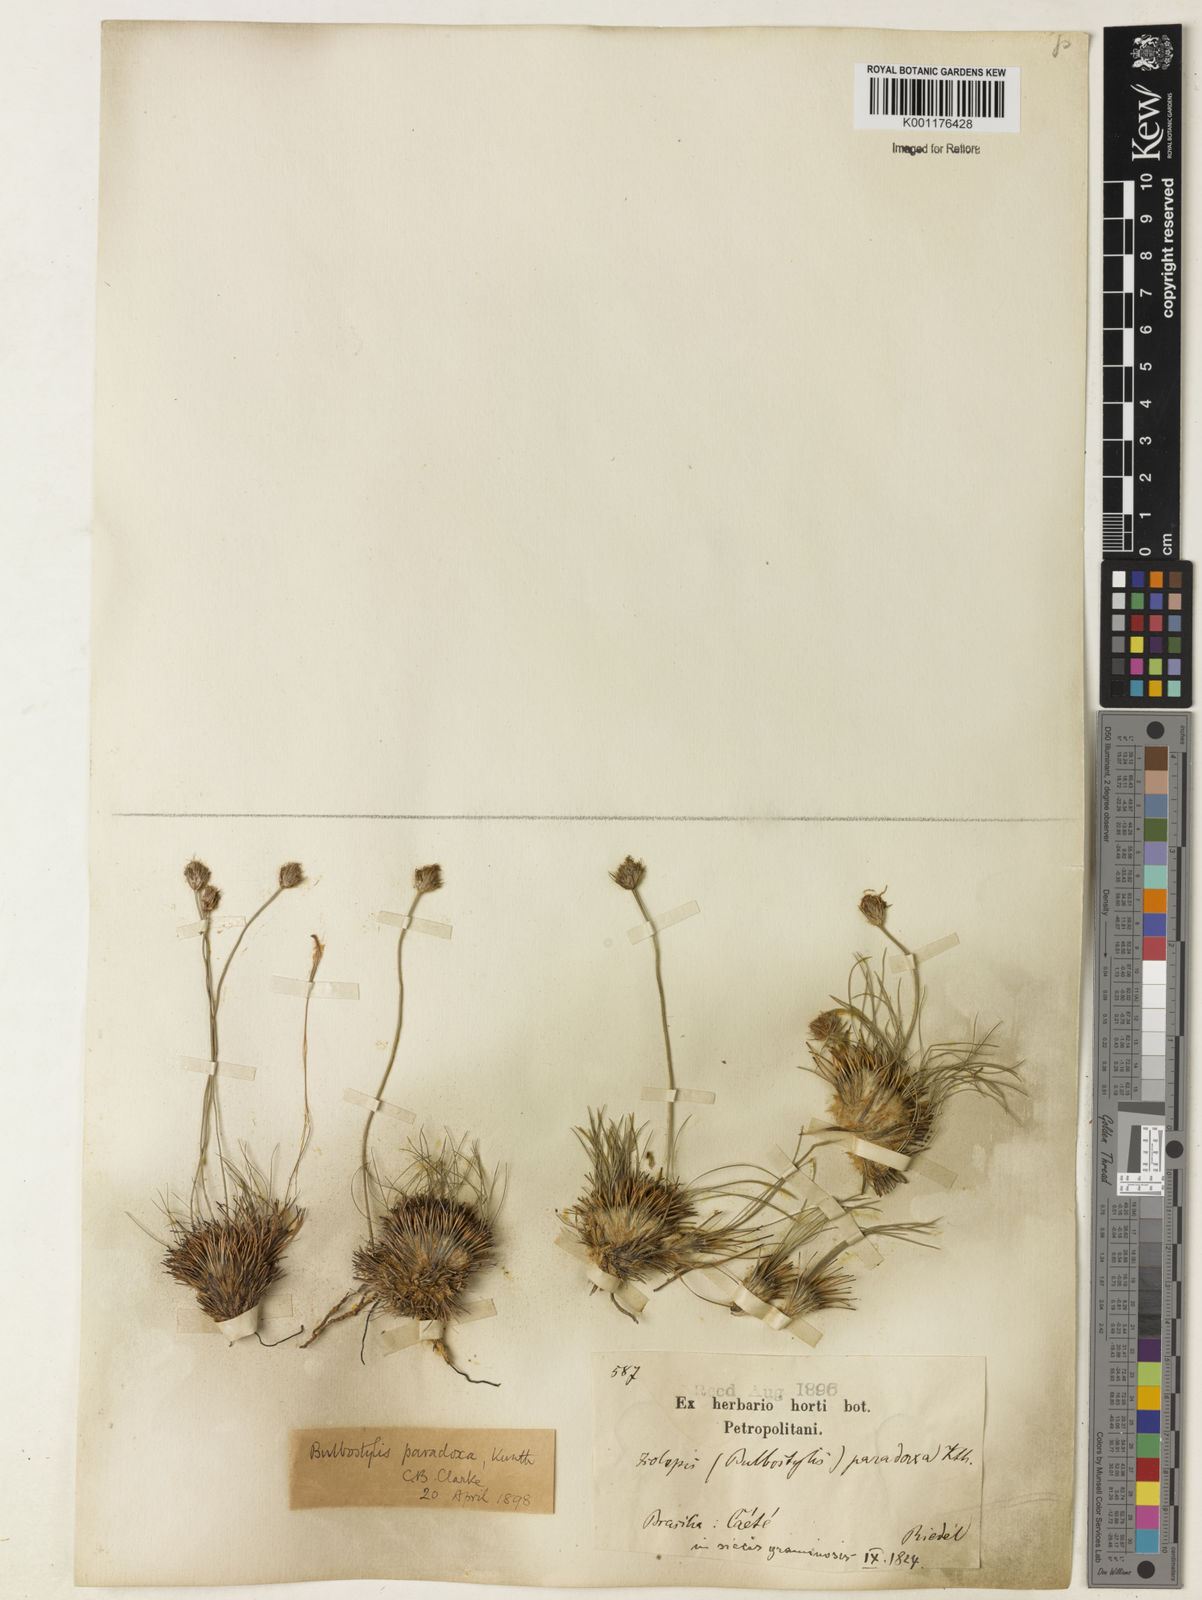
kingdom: Plantae
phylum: Tracheophyta
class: Liliopsida
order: Poales
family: Cyperaceae
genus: Bulbostylis
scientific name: Bulbostylis paradoxa
